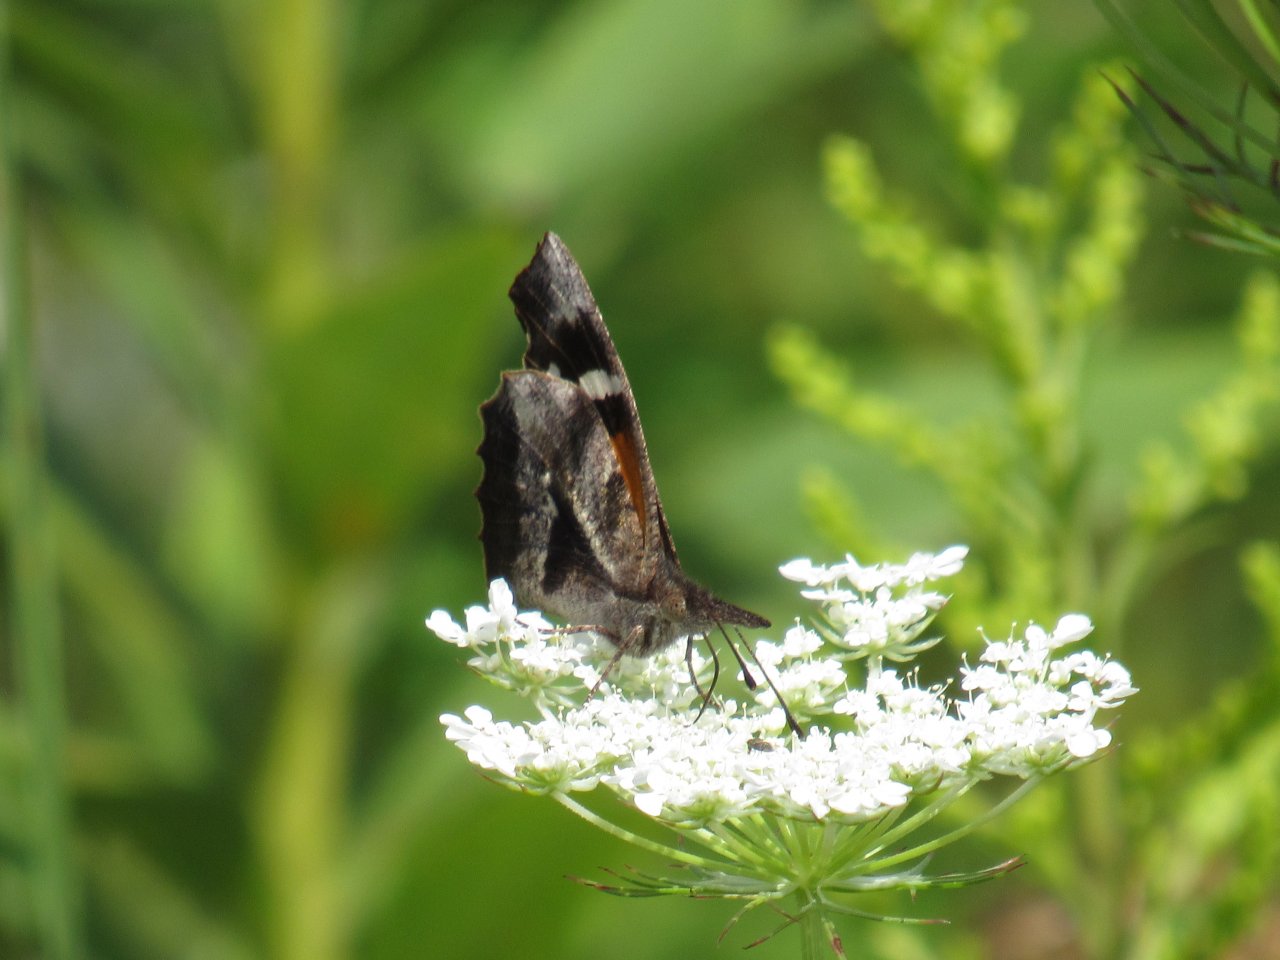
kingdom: Animalia
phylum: Arthropoda
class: Insecta
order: Lepidoptera
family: Nymphalidae
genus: Libytheana
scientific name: Libytheana carinenta
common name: American Snout
